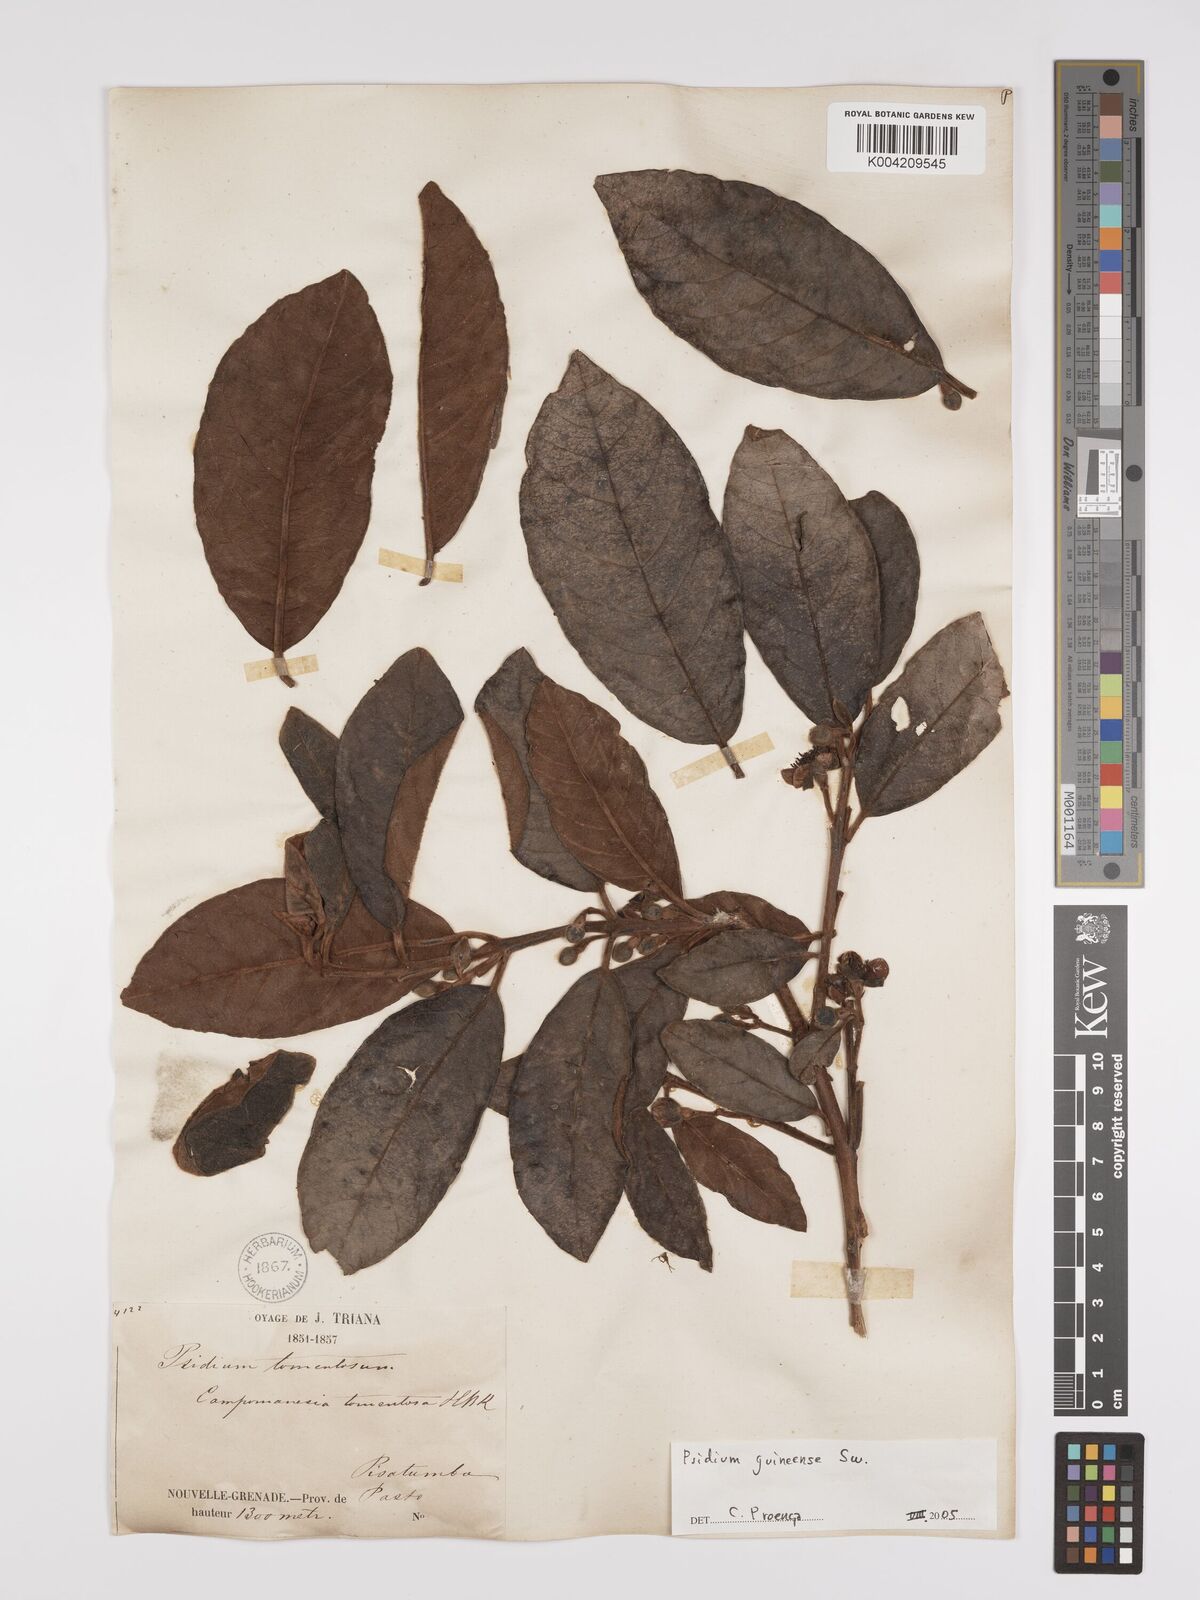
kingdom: Plantae
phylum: Tracheophyta
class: Magnoliopsida
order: Myrtales
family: Myrtaceae
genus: Psidium
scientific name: Psidium guineense
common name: Brazilian guava
